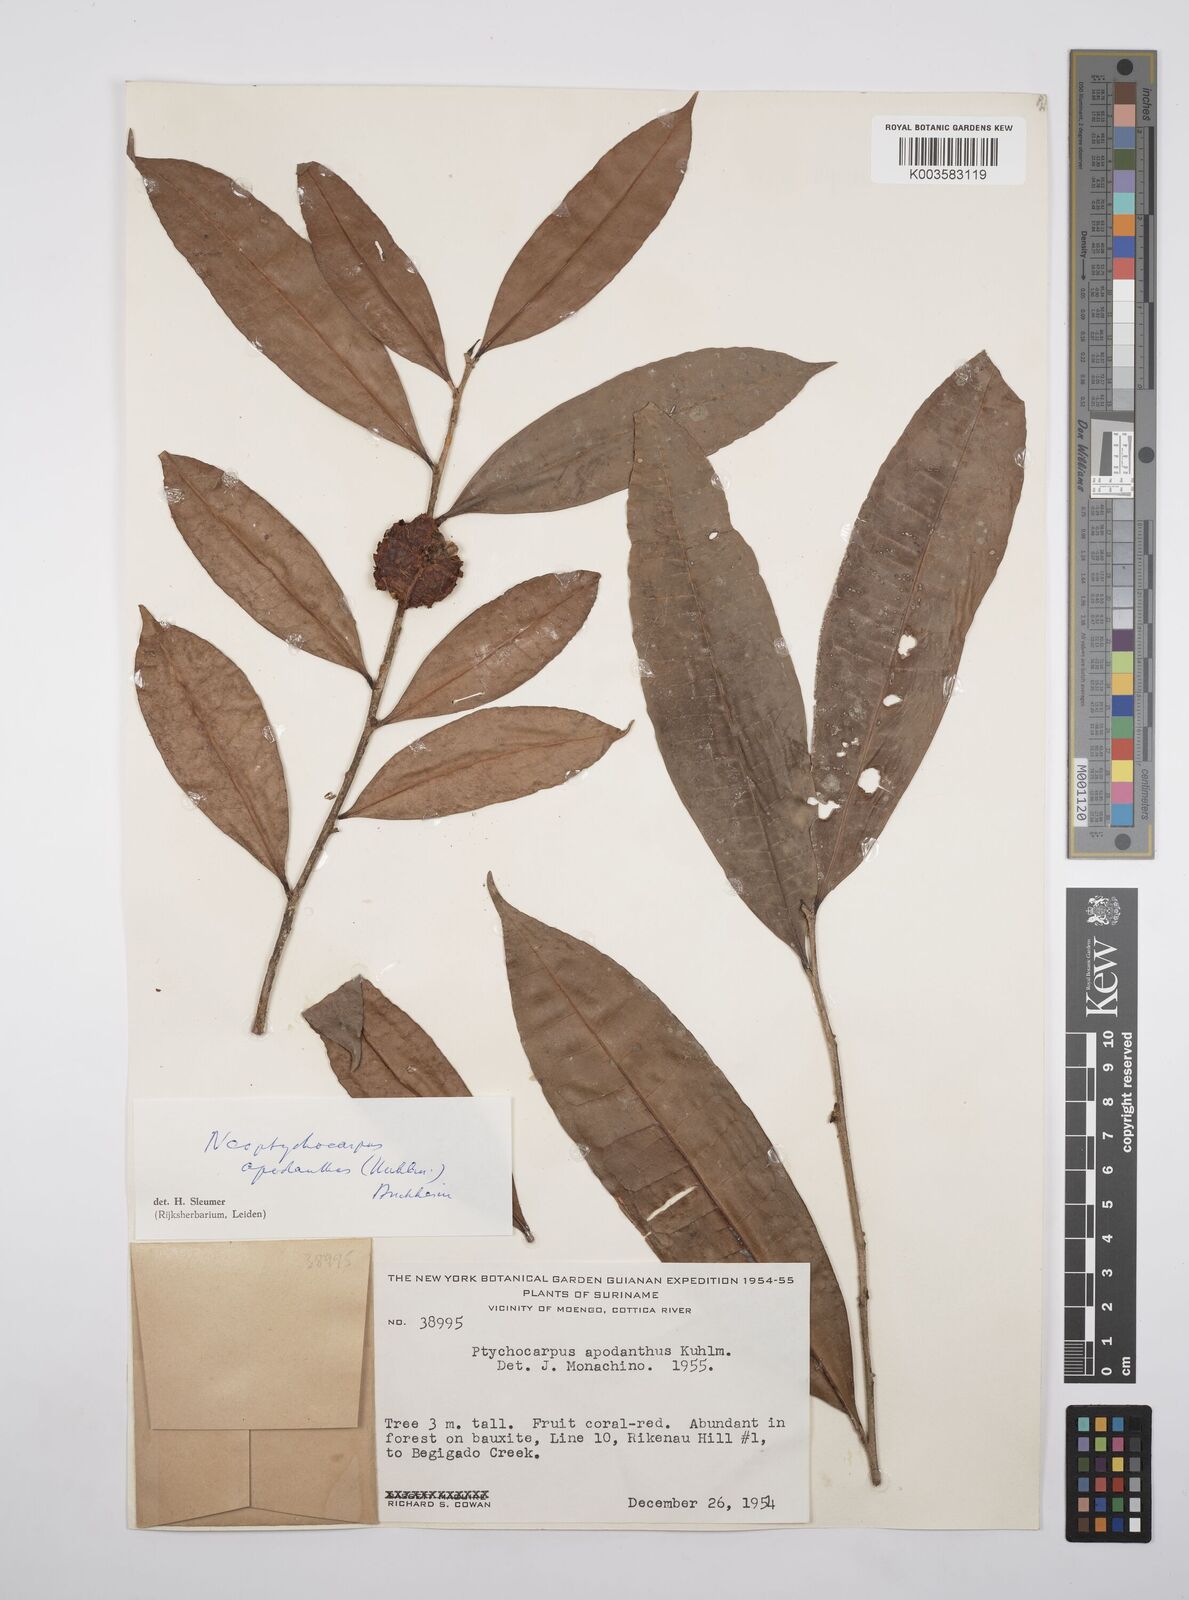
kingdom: Plantae
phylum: Tracheophyta
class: Magnoliopsida
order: Malpighiales
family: Salicaceae
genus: Casearia
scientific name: Casearia apodantha
